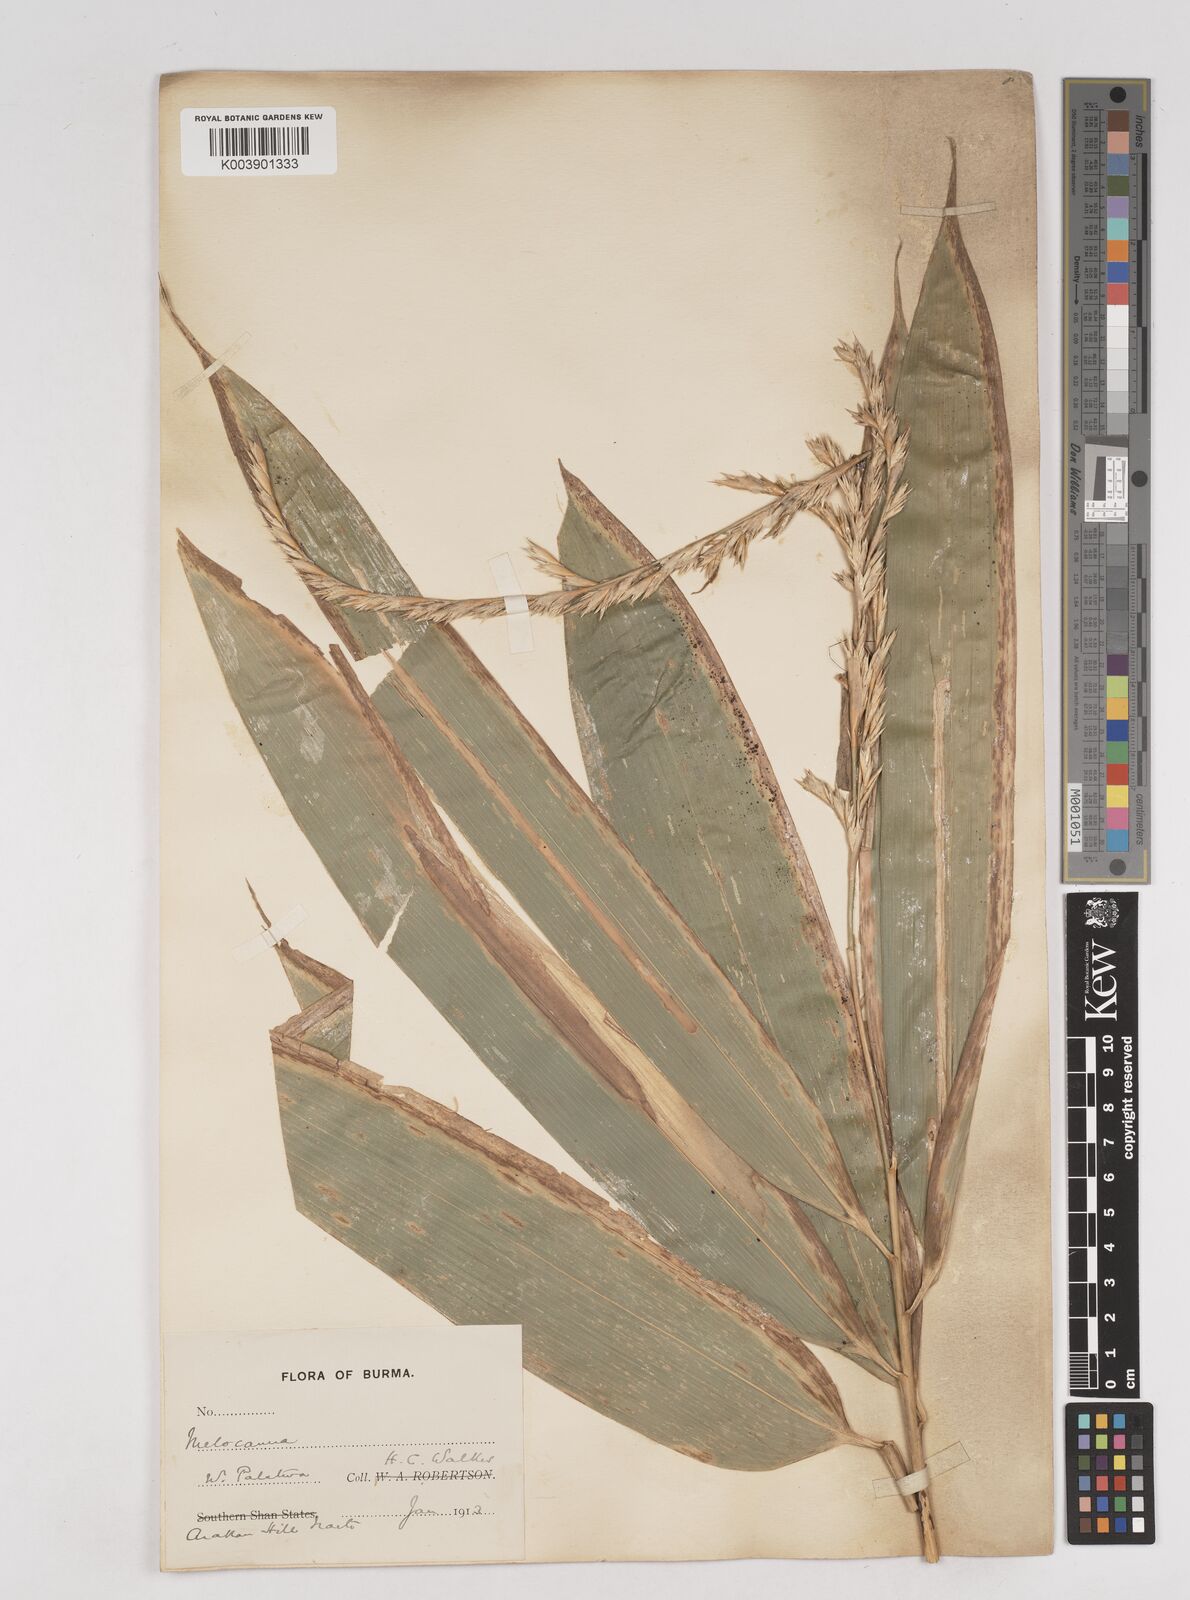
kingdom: Plantae
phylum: Tracheophyta
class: Liliopsida
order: Poales
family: Poaceae
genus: Melocanna
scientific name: Melocanna
